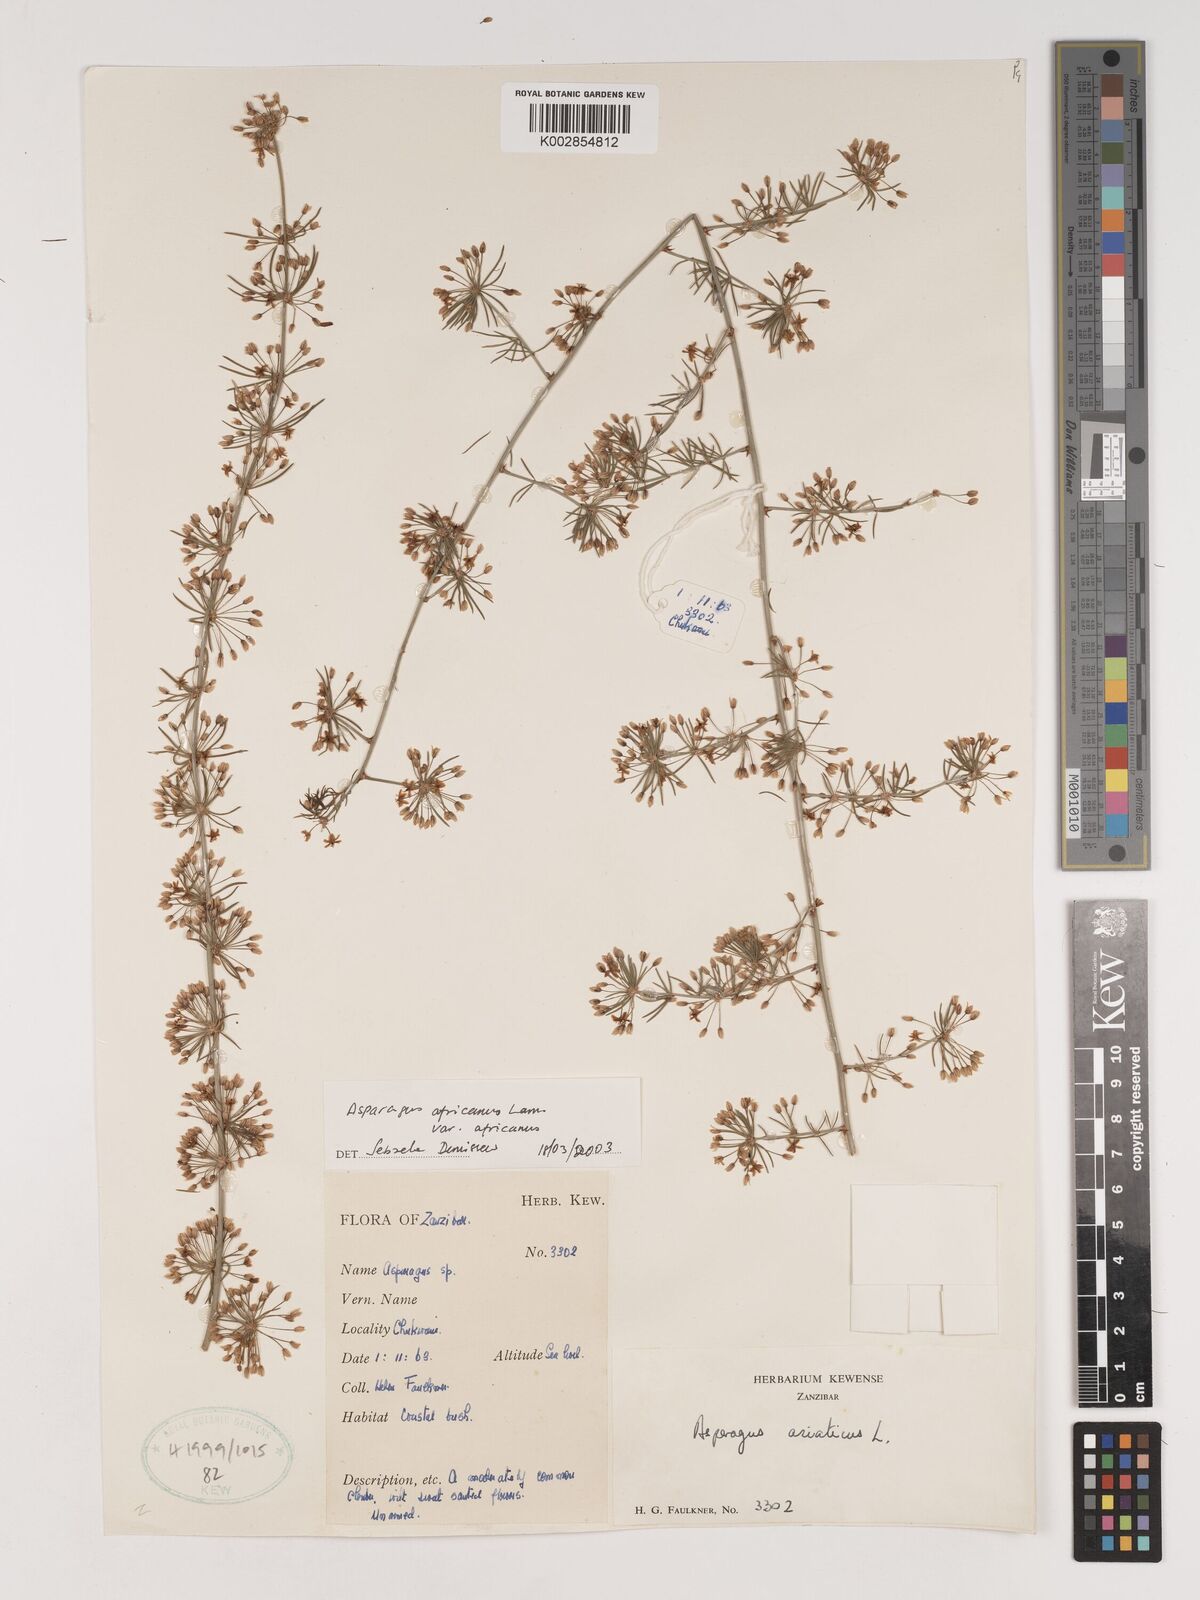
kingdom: Plantae
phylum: Tracheophyta
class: Liliopsida
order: Asparagales
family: Asparagaceae
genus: Asparagus
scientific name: Asparagus africanus
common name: Asparagus-fern
